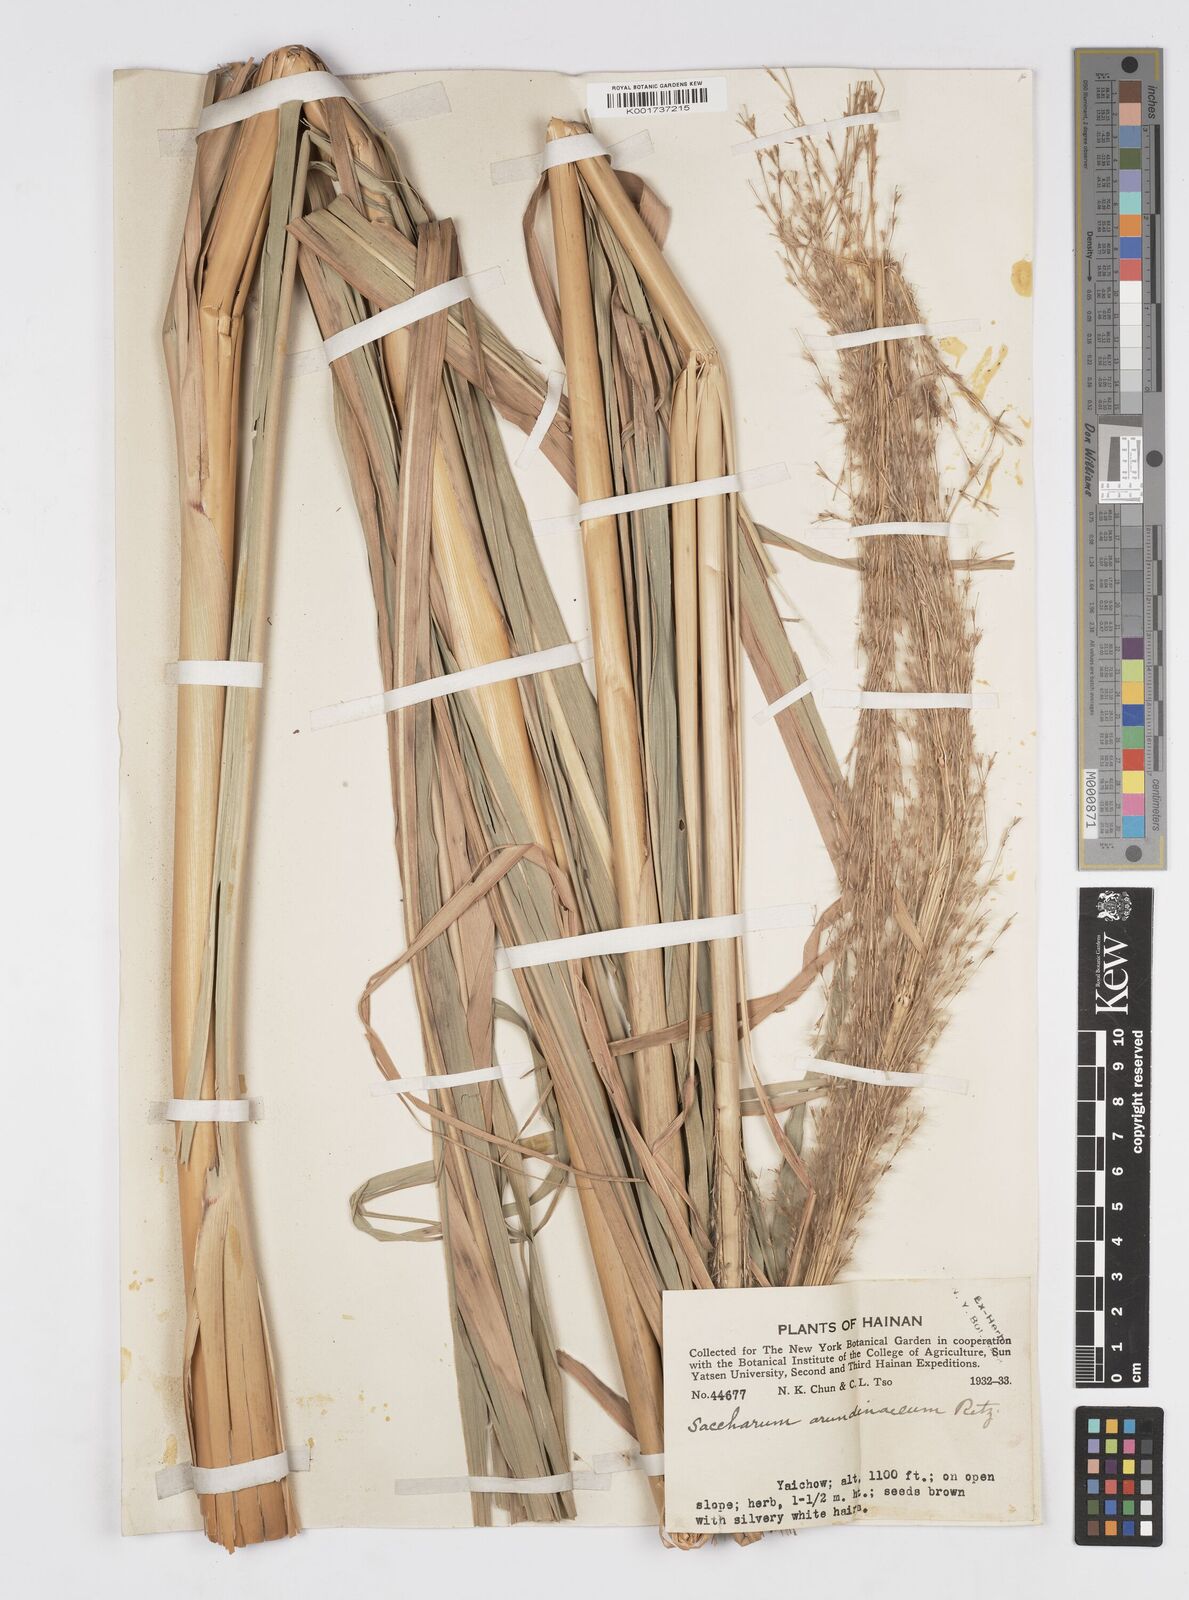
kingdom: Plantae
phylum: Tracheophyta
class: Liliopsida
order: Poales
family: Poaceae
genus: Tripidium
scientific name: Tripidium arundinaceum
